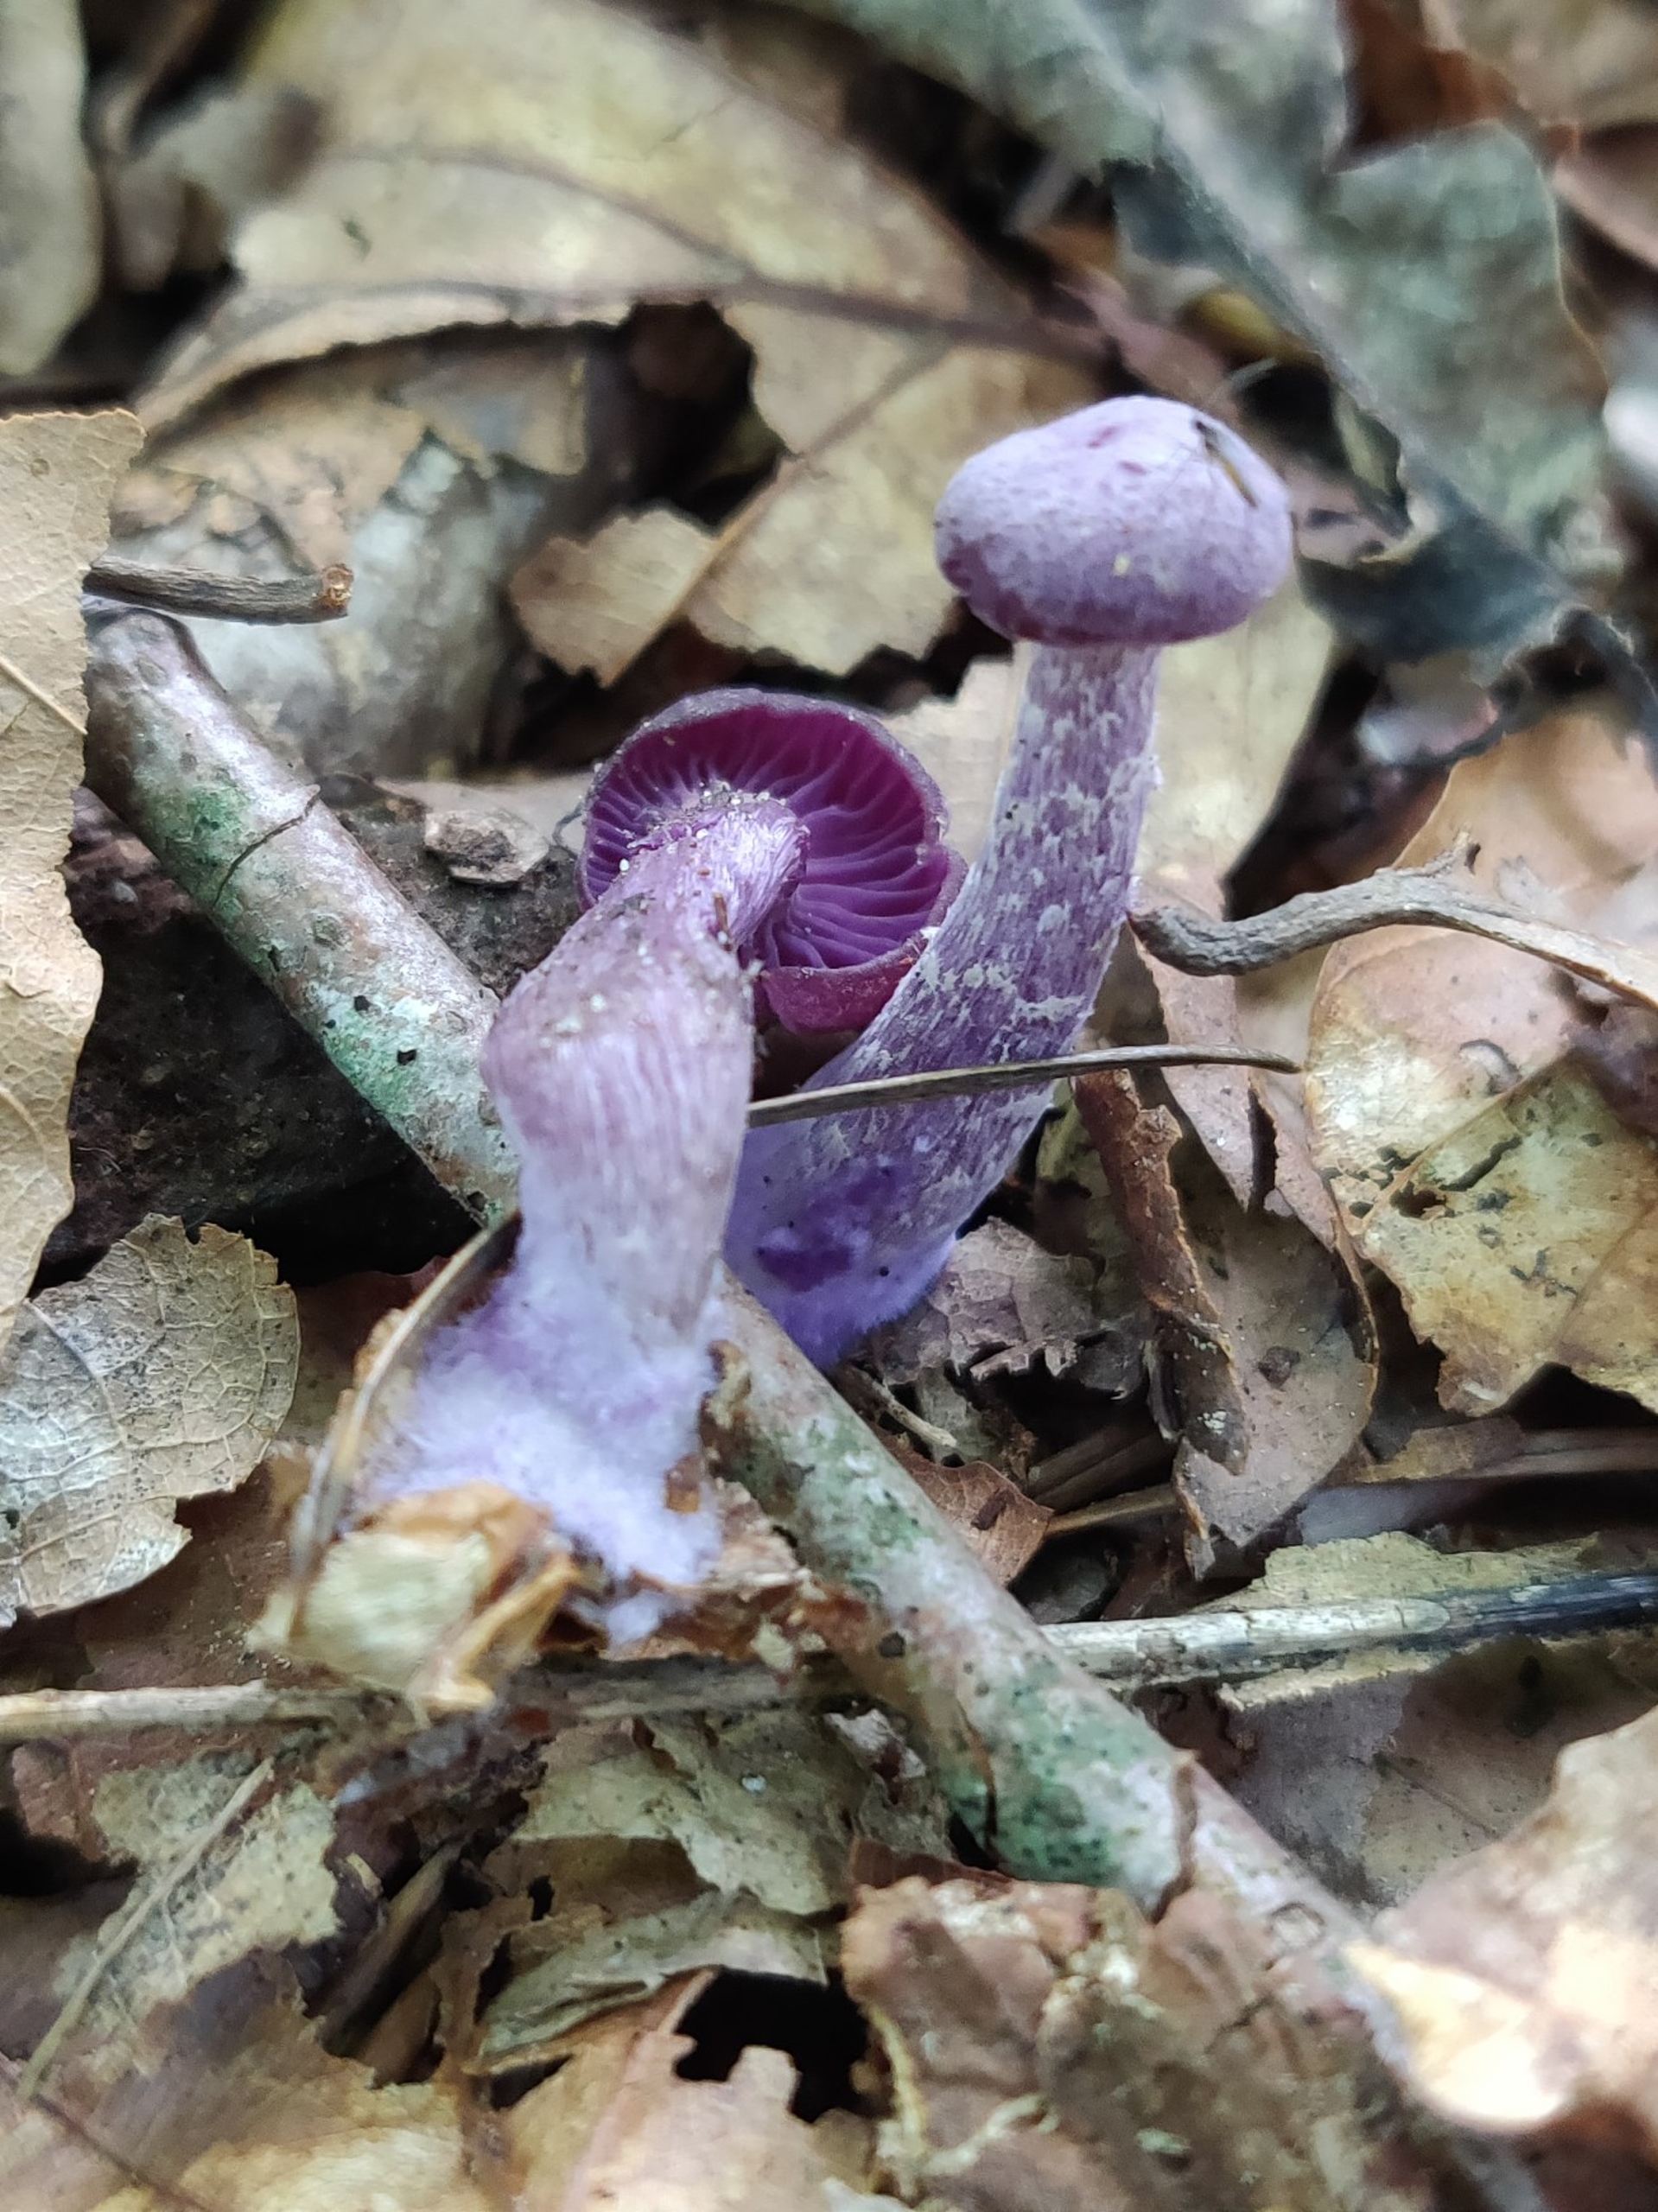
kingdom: Fungi
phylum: Basidiomycota
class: Agaricomycetes
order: Agaricales
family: Hydnangiaceae
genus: Laccaria
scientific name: Laccaria amethystina
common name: Violet ametysthat
